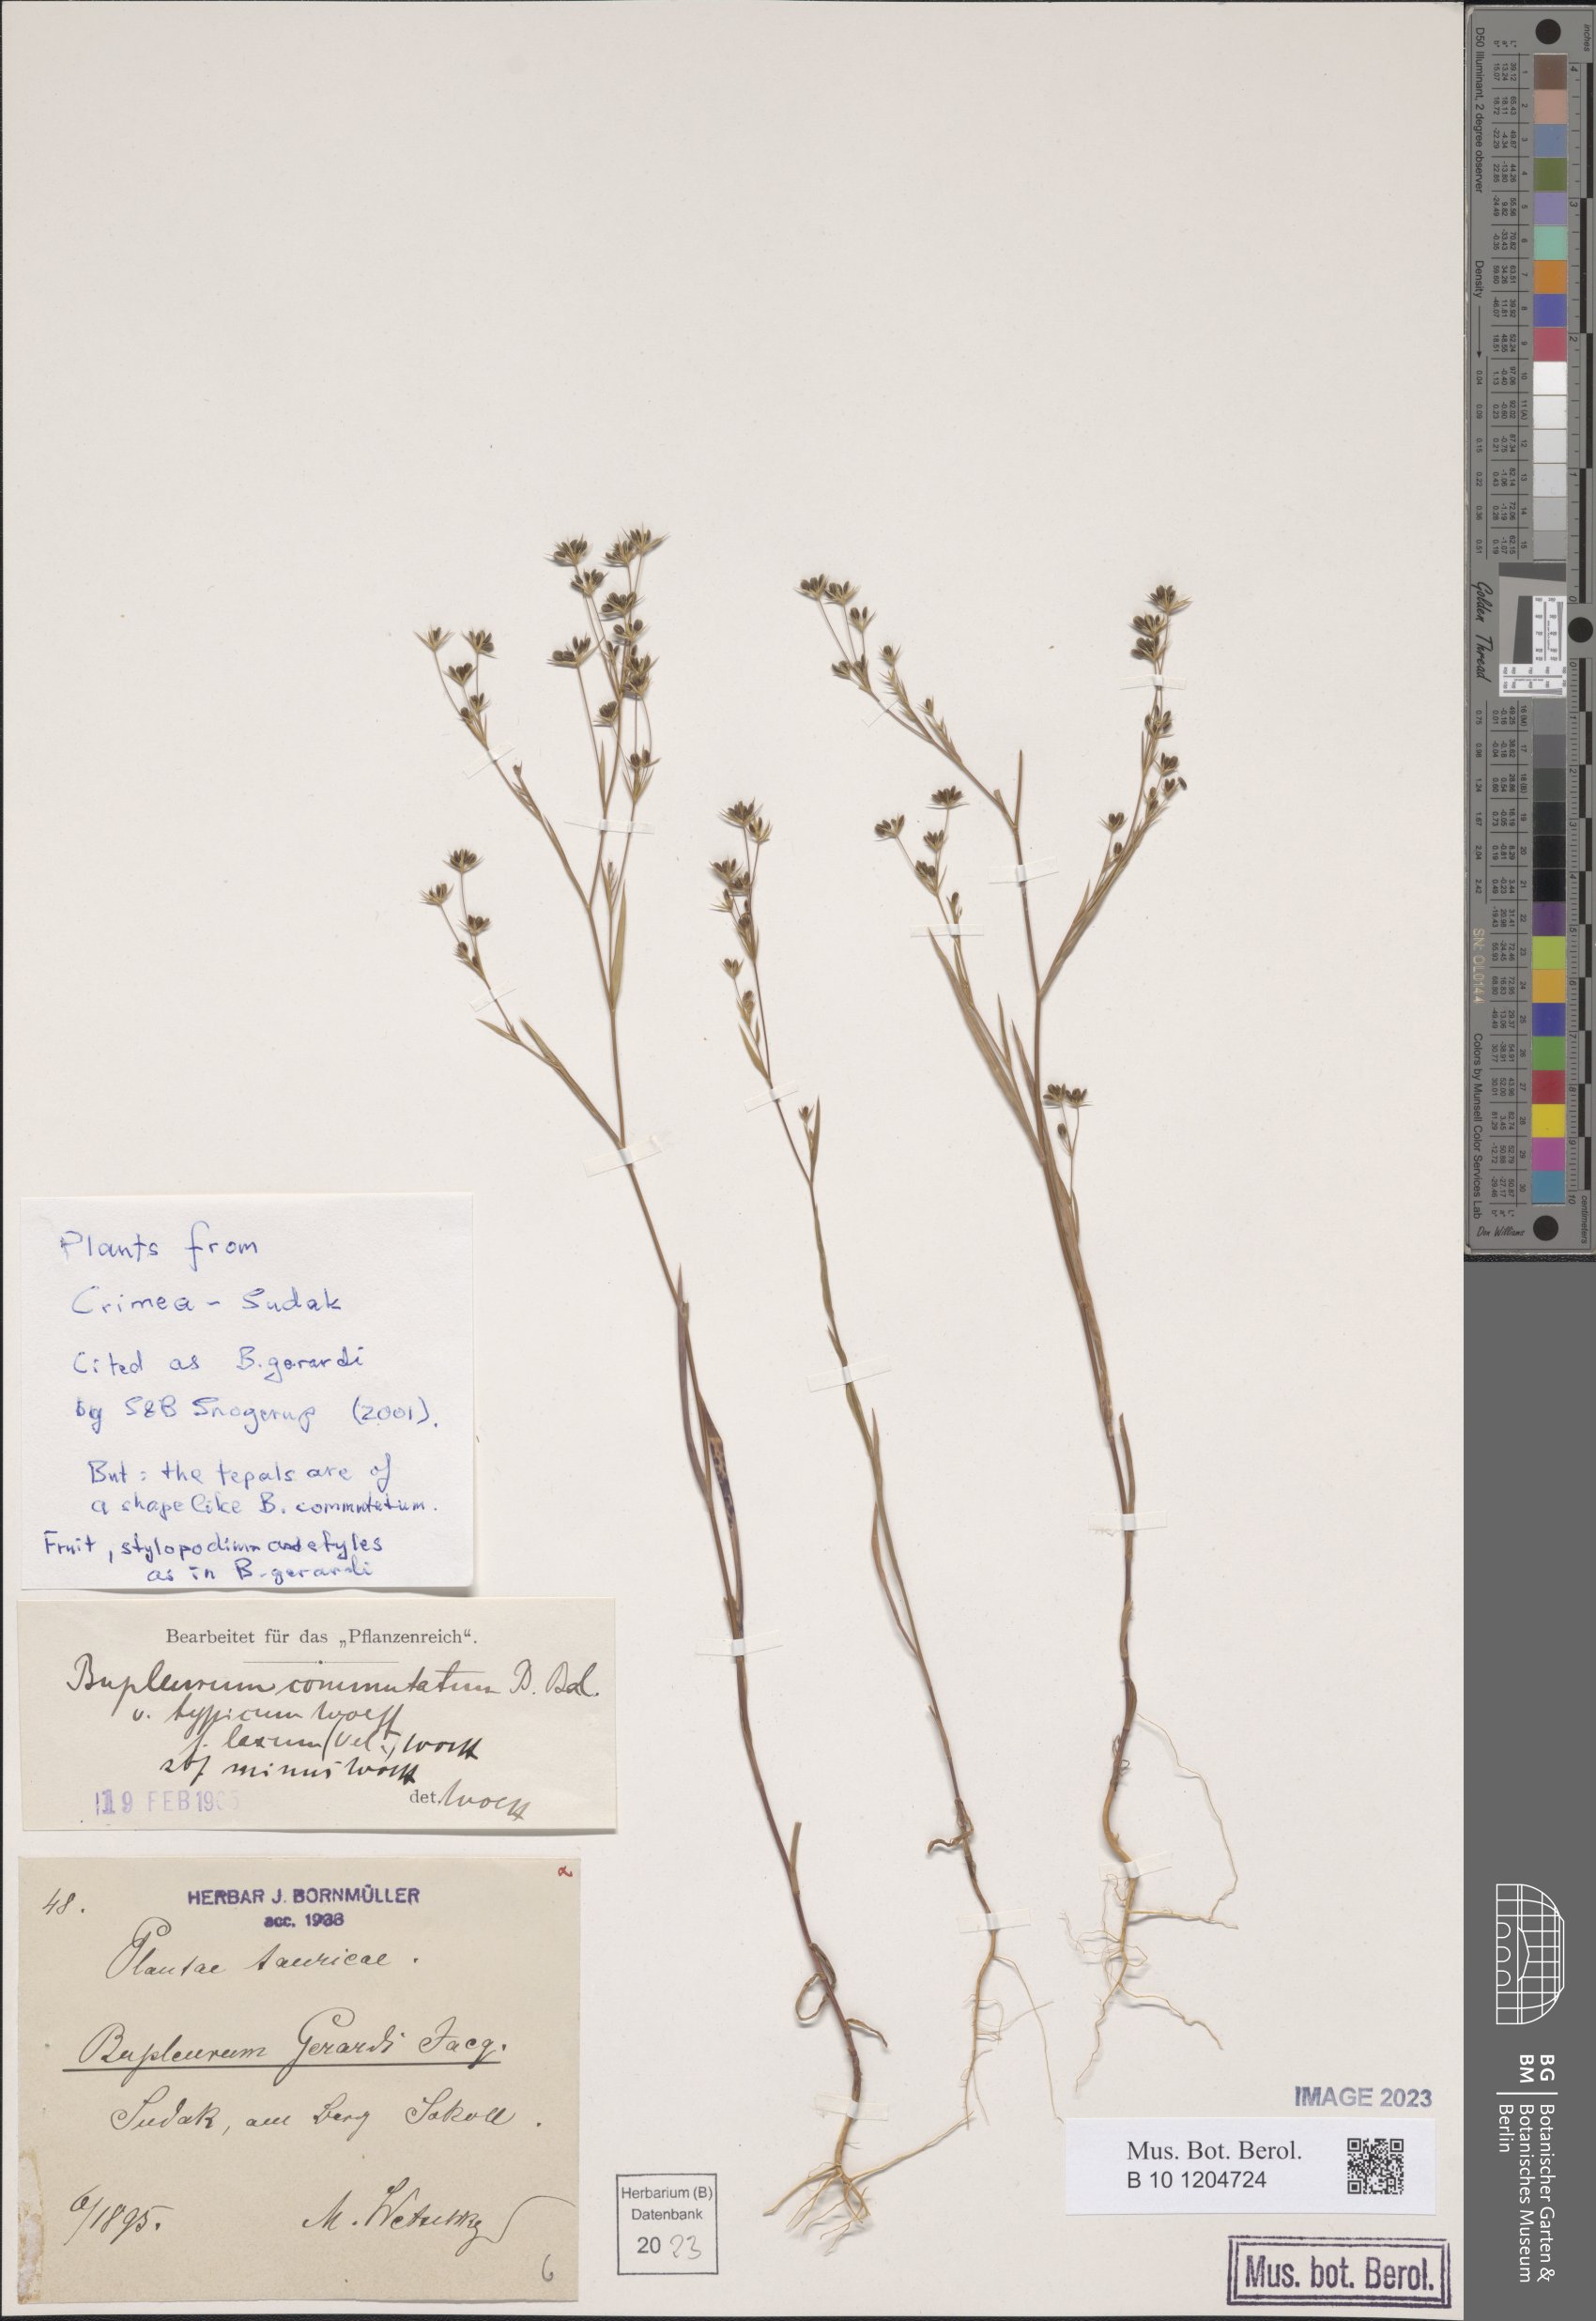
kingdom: Plantae
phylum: Tracheophyta
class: Magnoliopsida
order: Apiales
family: Apiaceae
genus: Bupleurum
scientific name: Bupleurum gerardi
